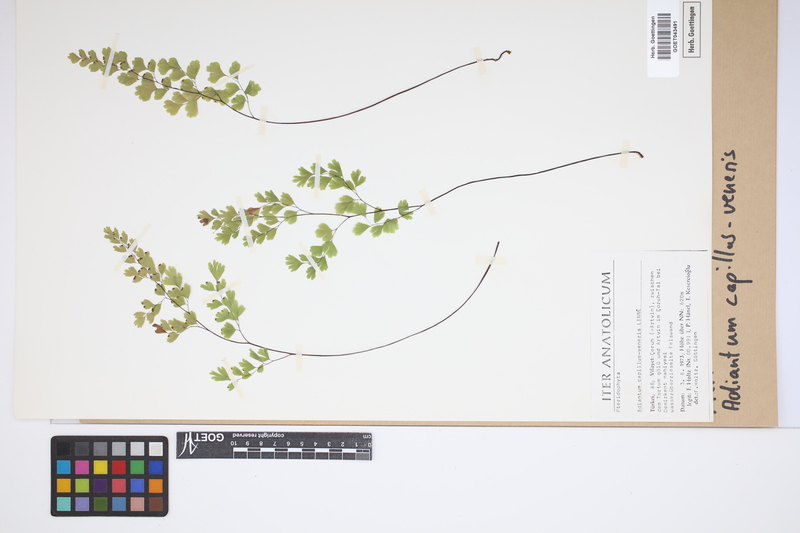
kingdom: Plantae
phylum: Tracheophyta
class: Polypodiopsida
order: Polypodiales
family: Pteridaceae
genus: Adiantum
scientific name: Adiantum capillus-veneris
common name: Maidenhair fern
